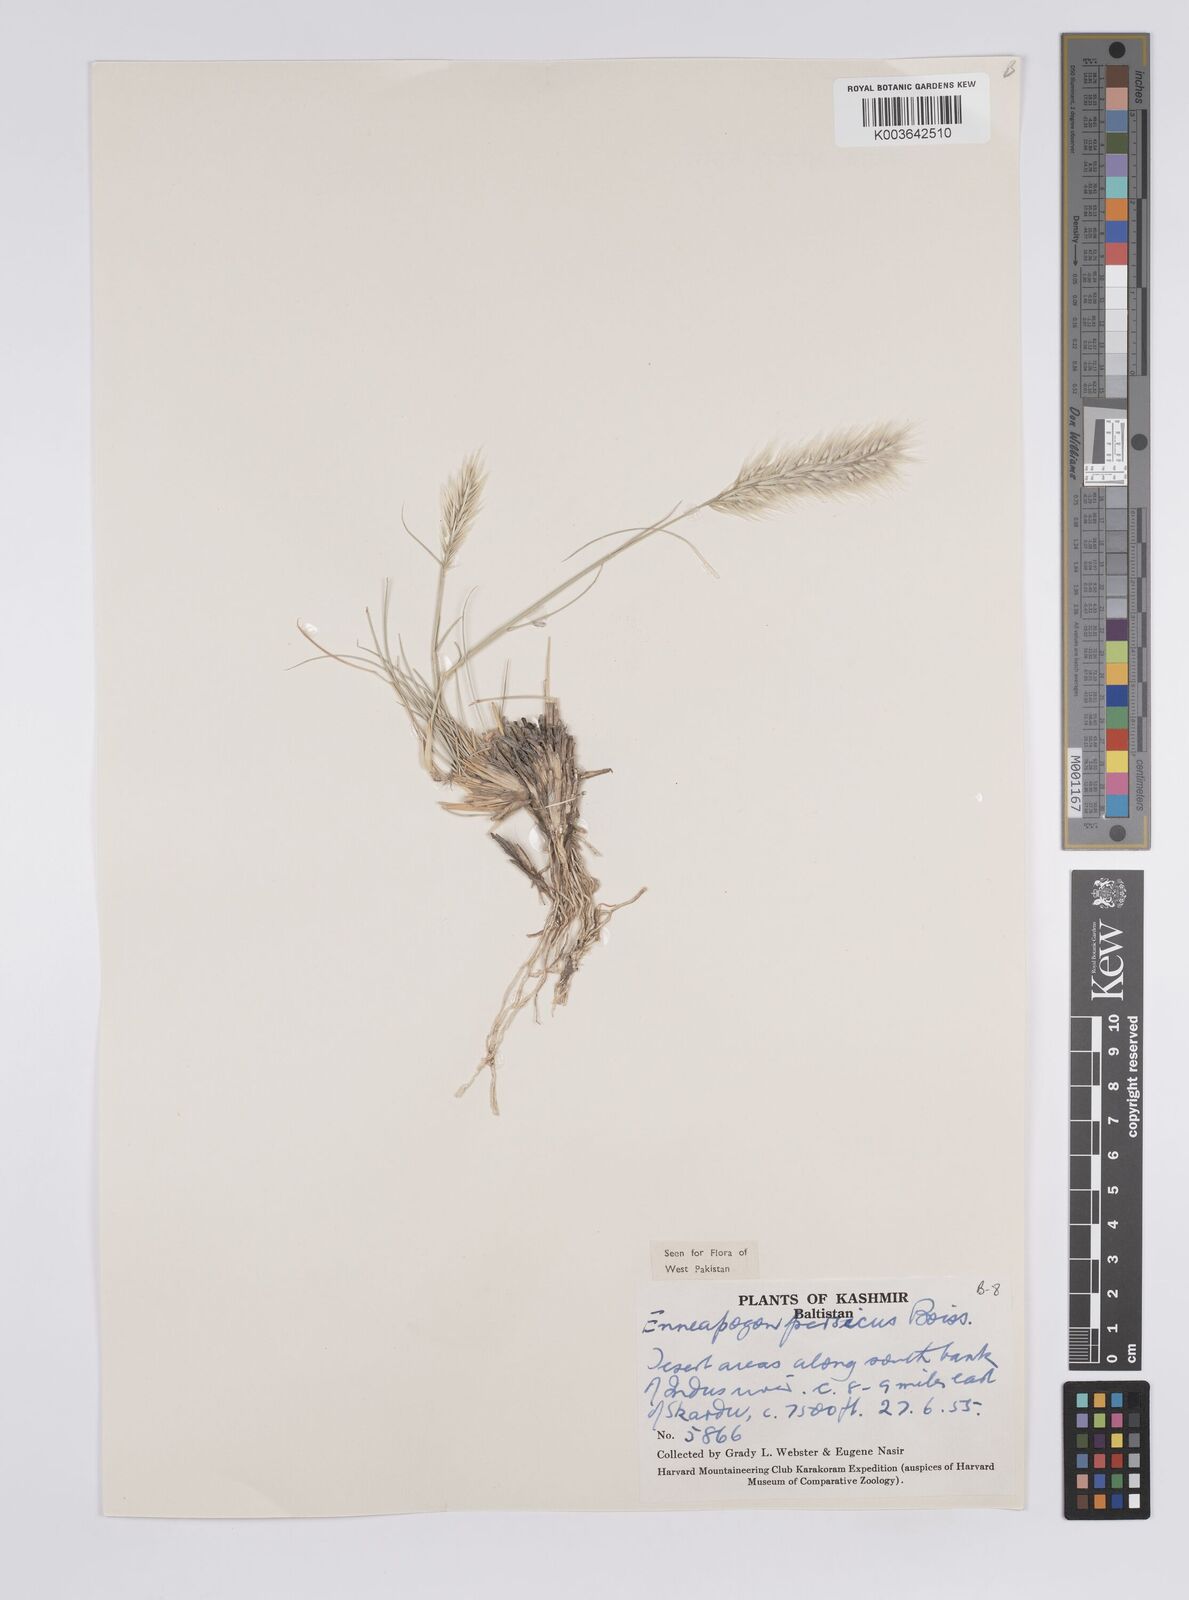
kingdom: Plantae
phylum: Tracheophyta
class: Liliopsida
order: Poales
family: Poaceae
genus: Enneapogon
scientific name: Enneapogon persicus
